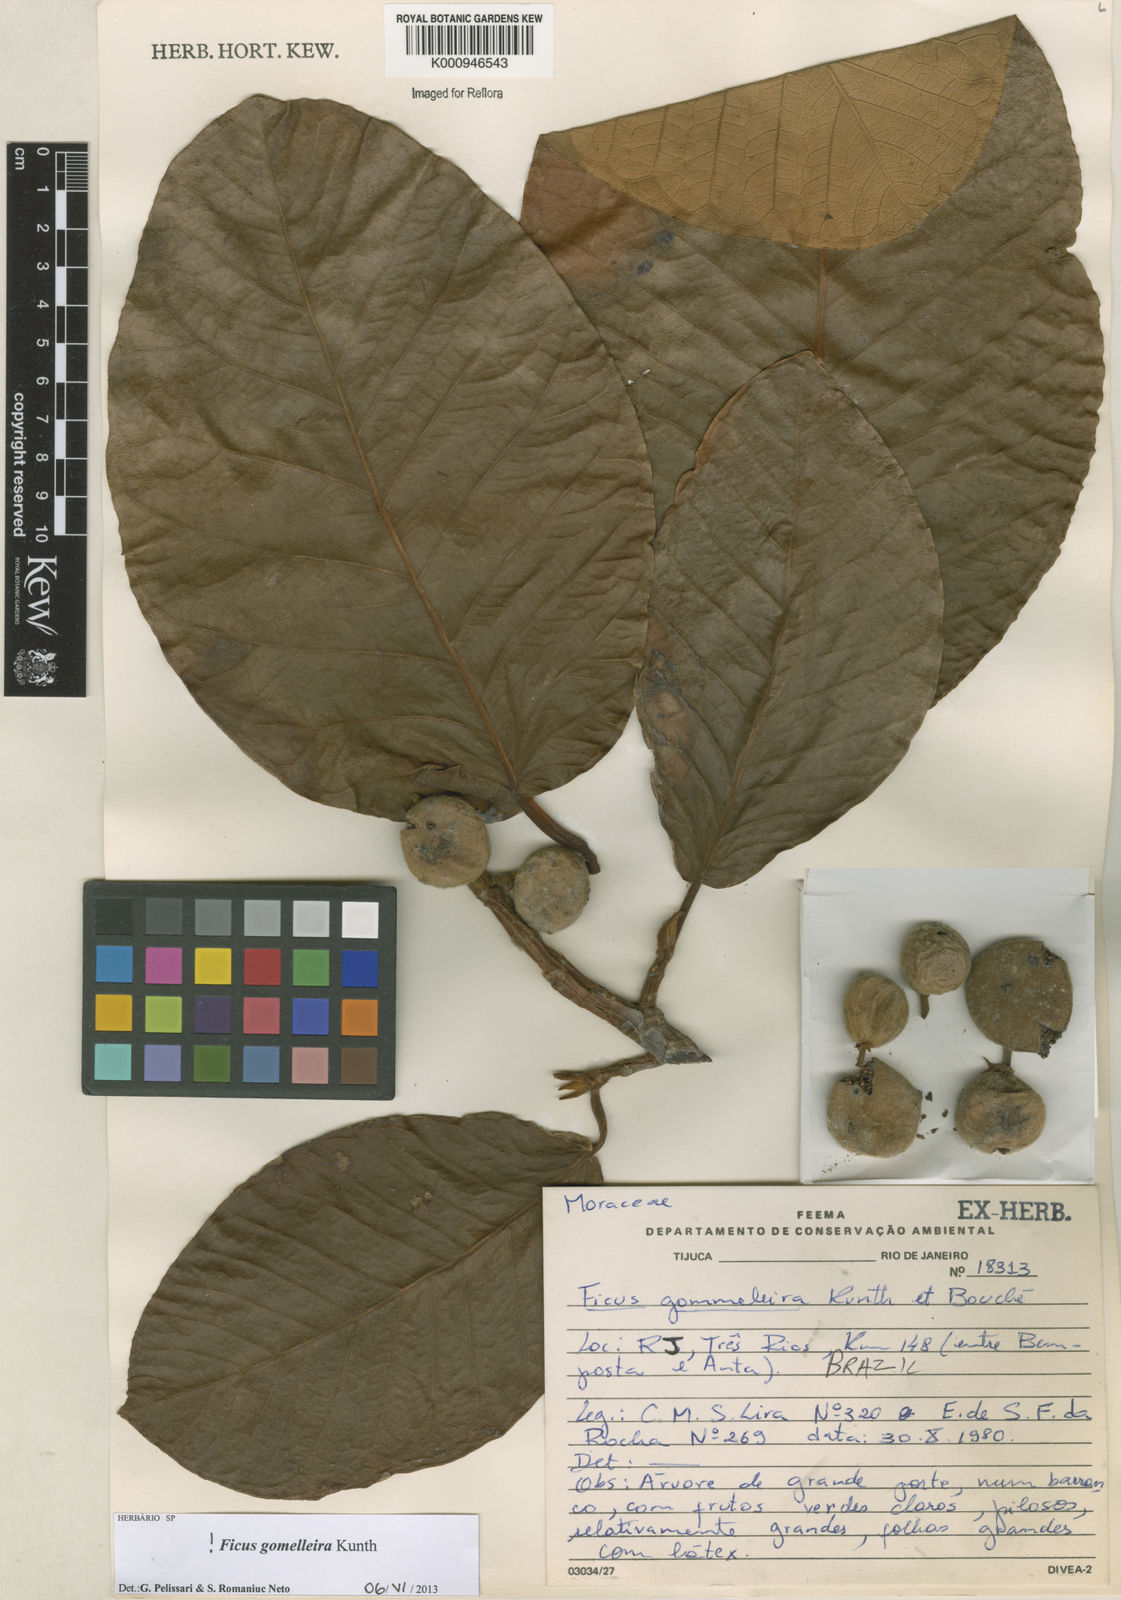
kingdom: Plantae
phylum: Tracheophyta
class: Magnoliopsida
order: Rosales
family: Moraceae
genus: Ficus
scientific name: Ficus gomelleira
